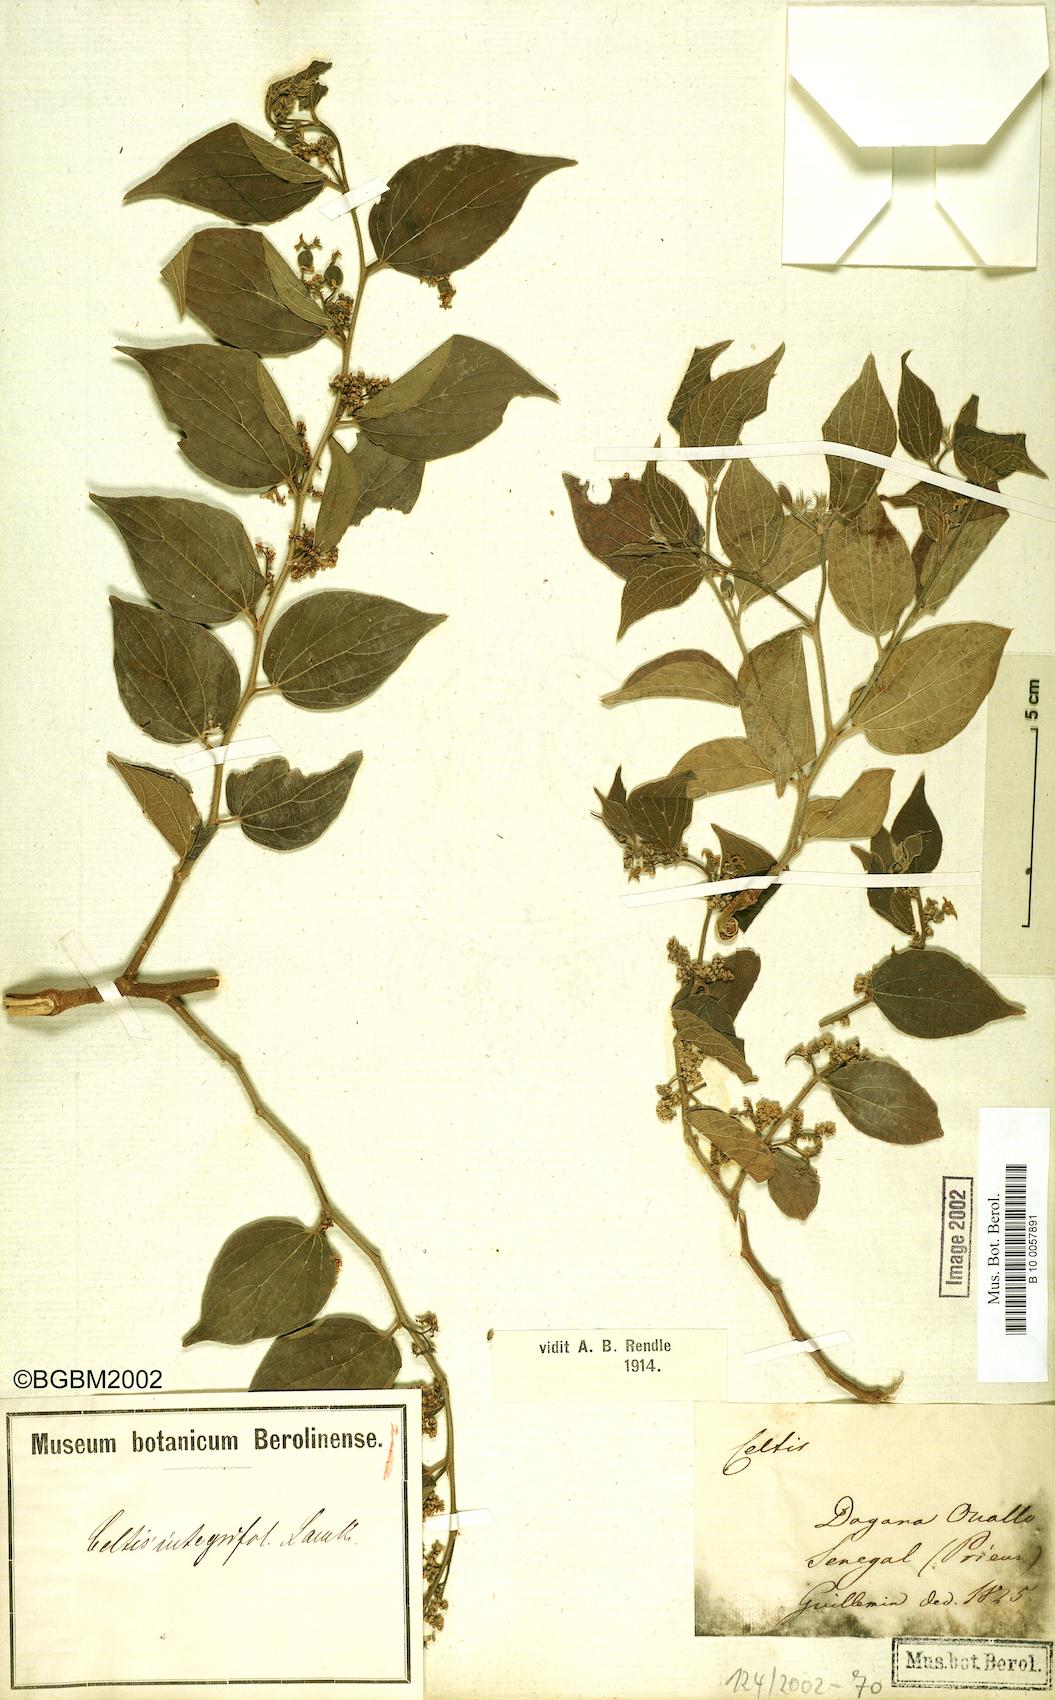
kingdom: Plantae
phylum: Tracheophyta
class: Magnoliopsida
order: Rosales
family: Cannabaceae
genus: Celtis
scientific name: Celtis toka
